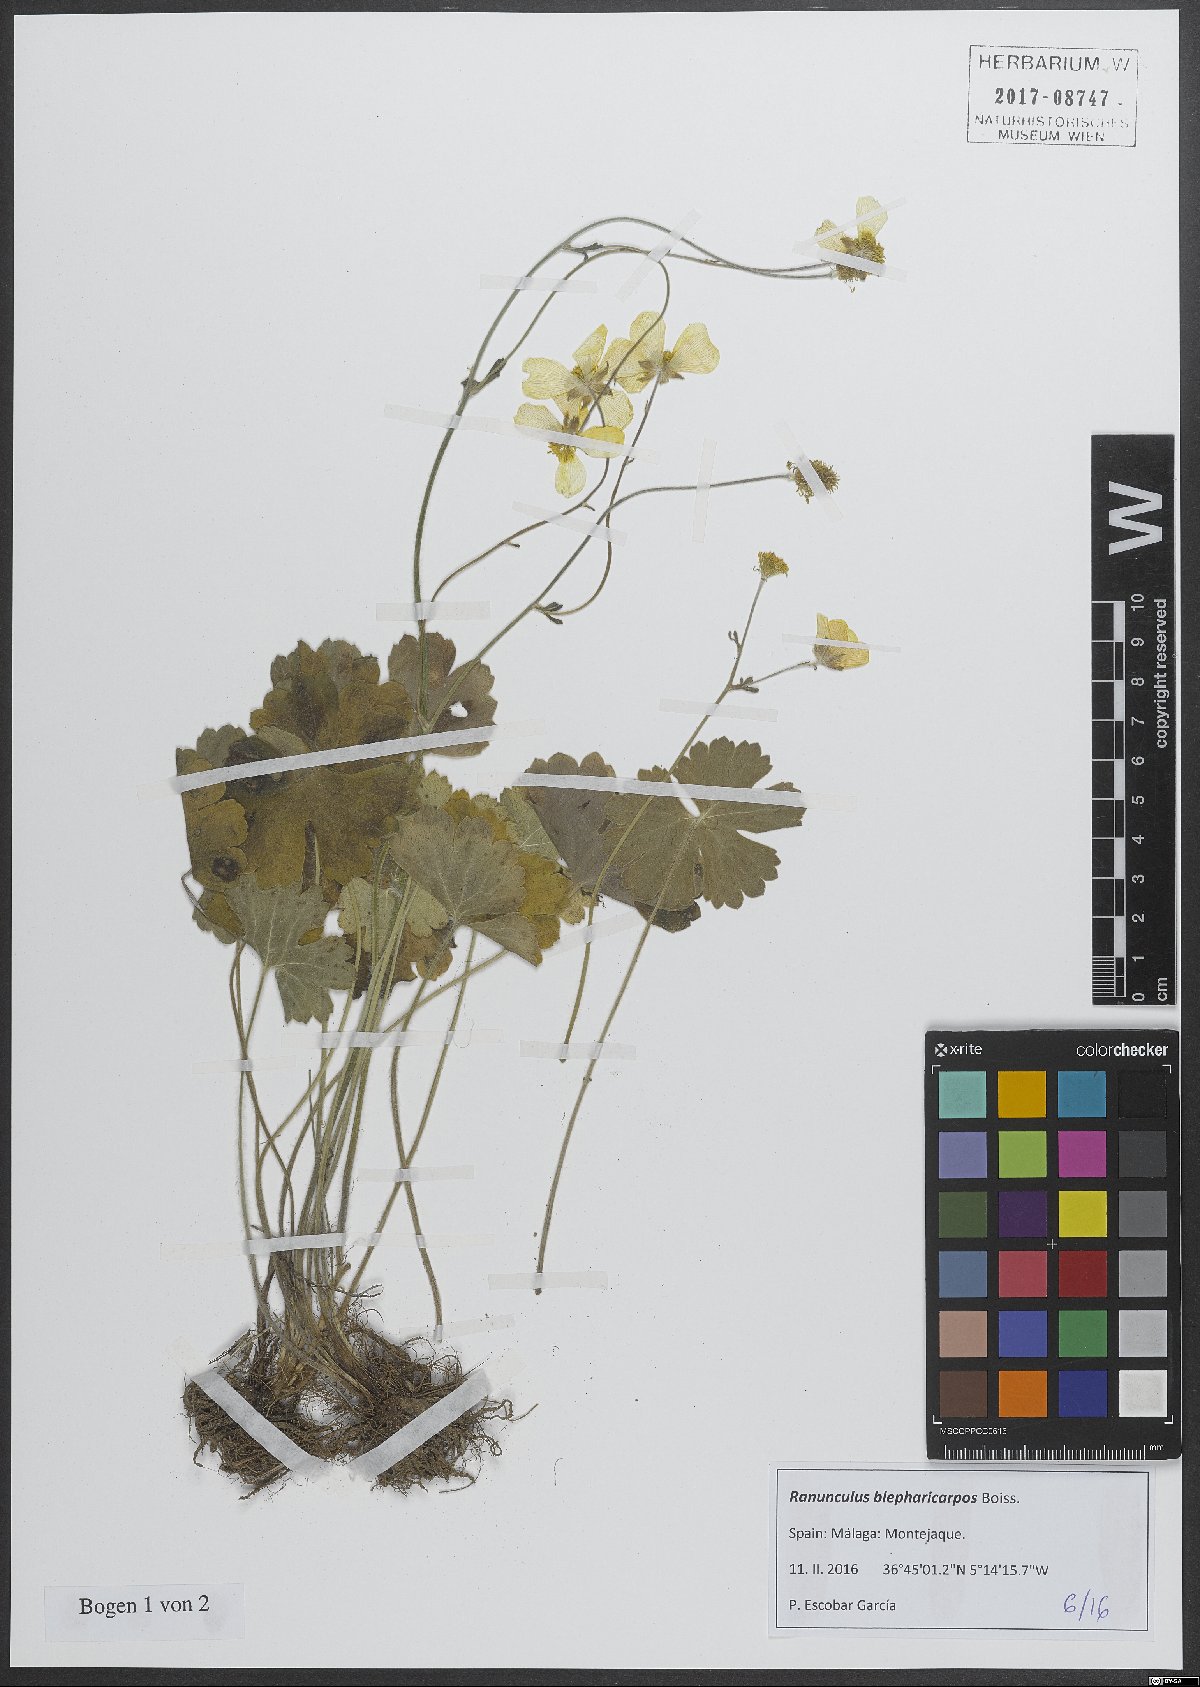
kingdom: Plantae
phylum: Tracheophyta
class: Magnoliopsida
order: Ranunculales
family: Ranunculaceae
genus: Ranunculus
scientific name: Ranunculus spicatus
